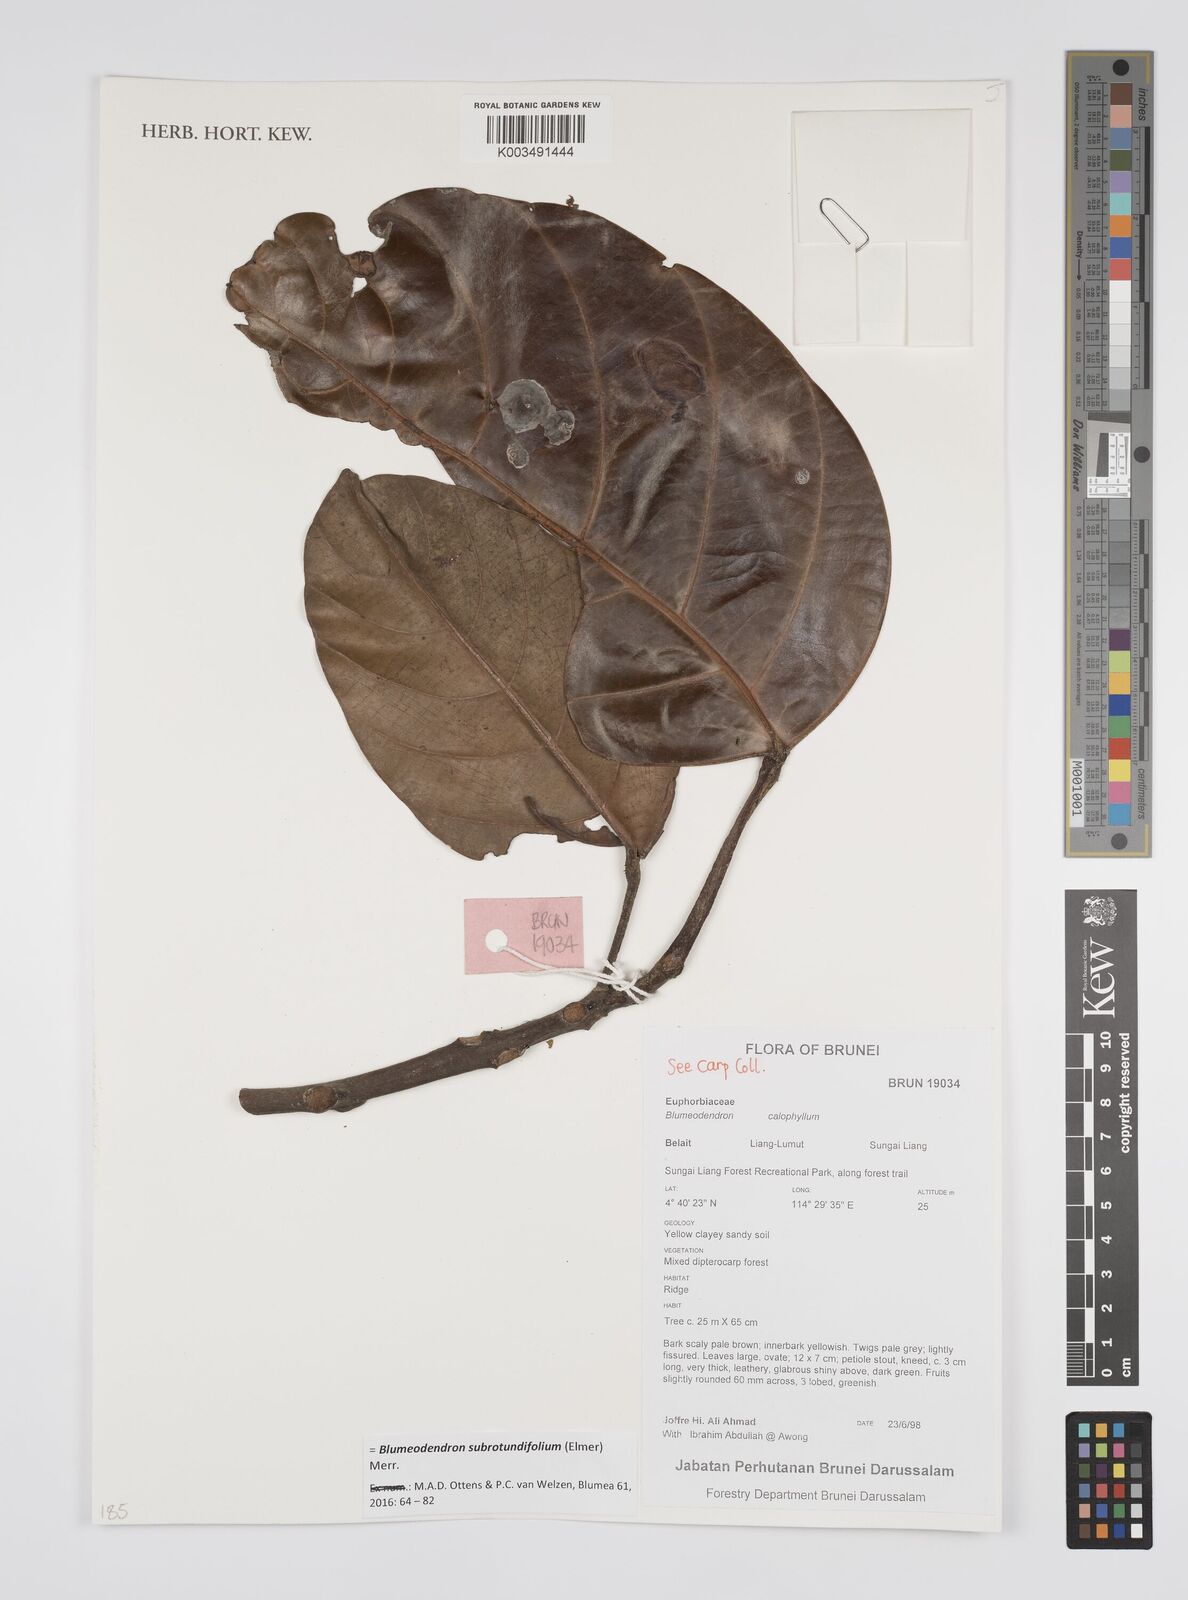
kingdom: Plantae
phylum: Tracheophyta
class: Magnoliopsida
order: Malpighiales
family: Euphorbiaceae
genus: Blumeodendron
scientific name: Blumeodendron subrotundifolium
